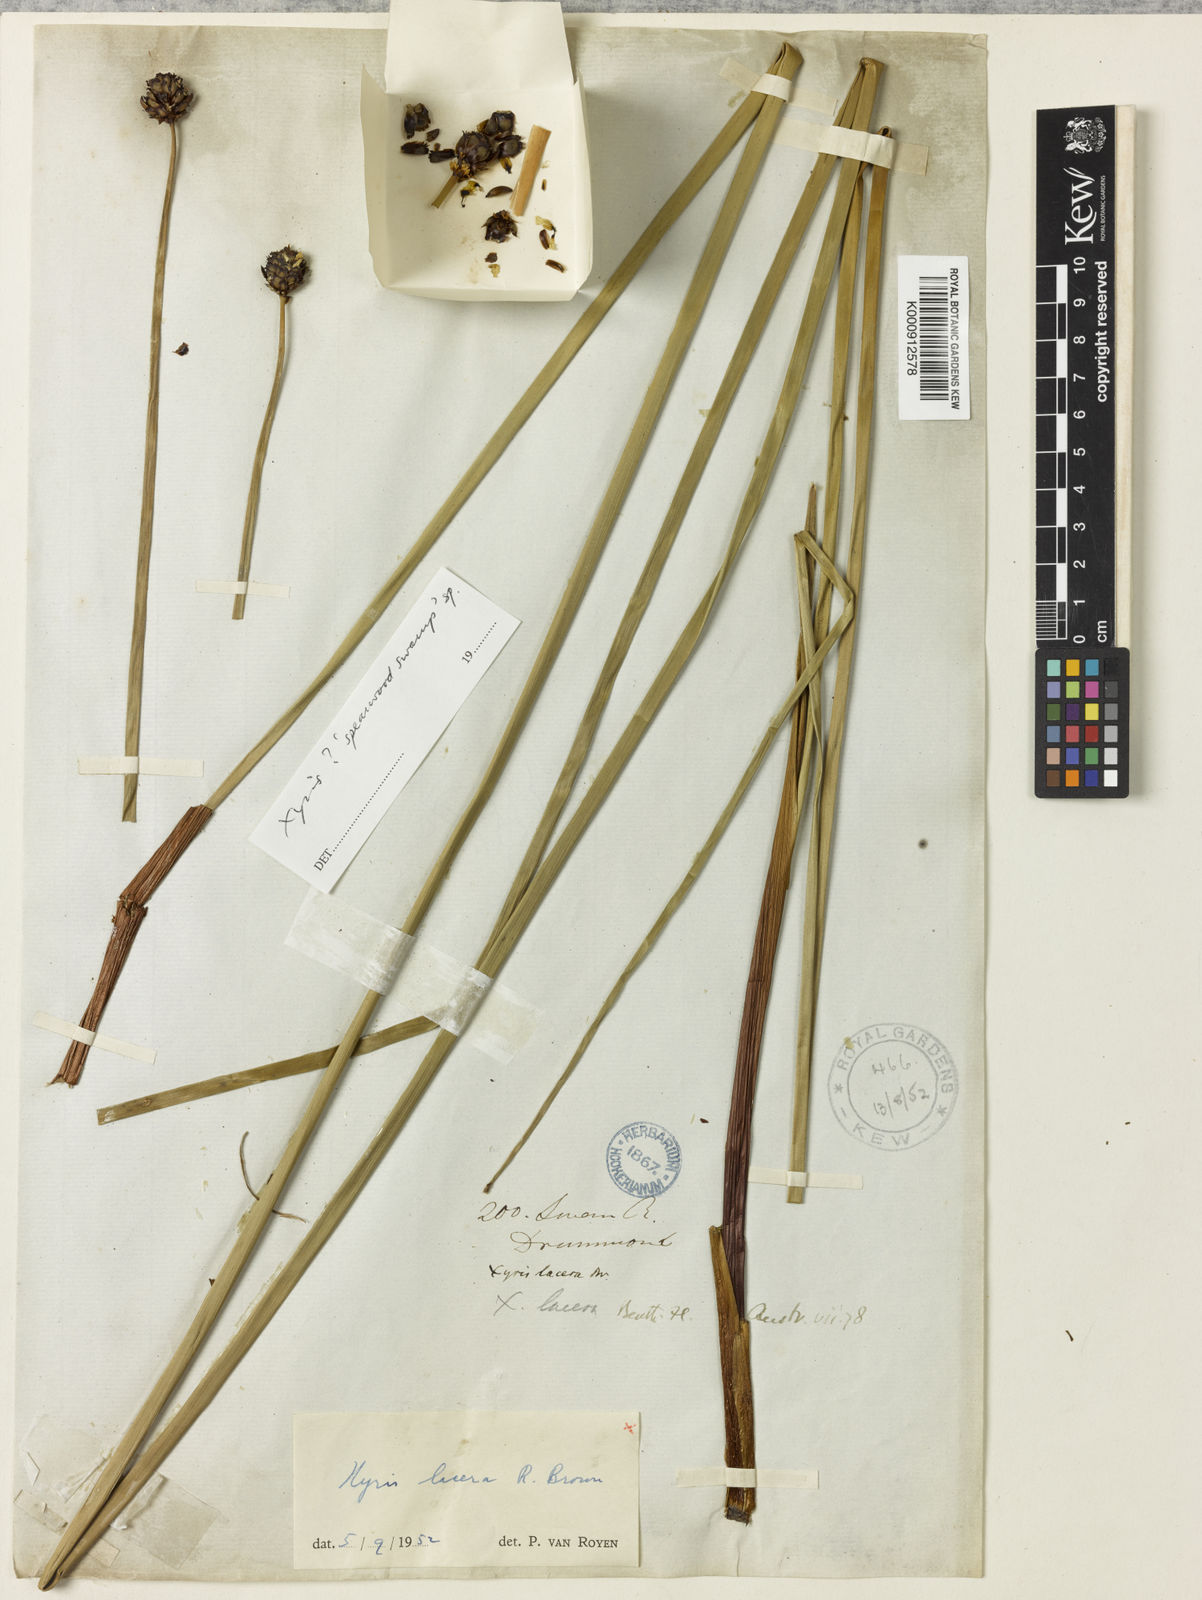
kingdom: Plantae
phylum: Tracheophyta
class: Liliopsida
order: Poales
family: Xyridaceae
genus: Xyris
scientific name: Xyris lacera
